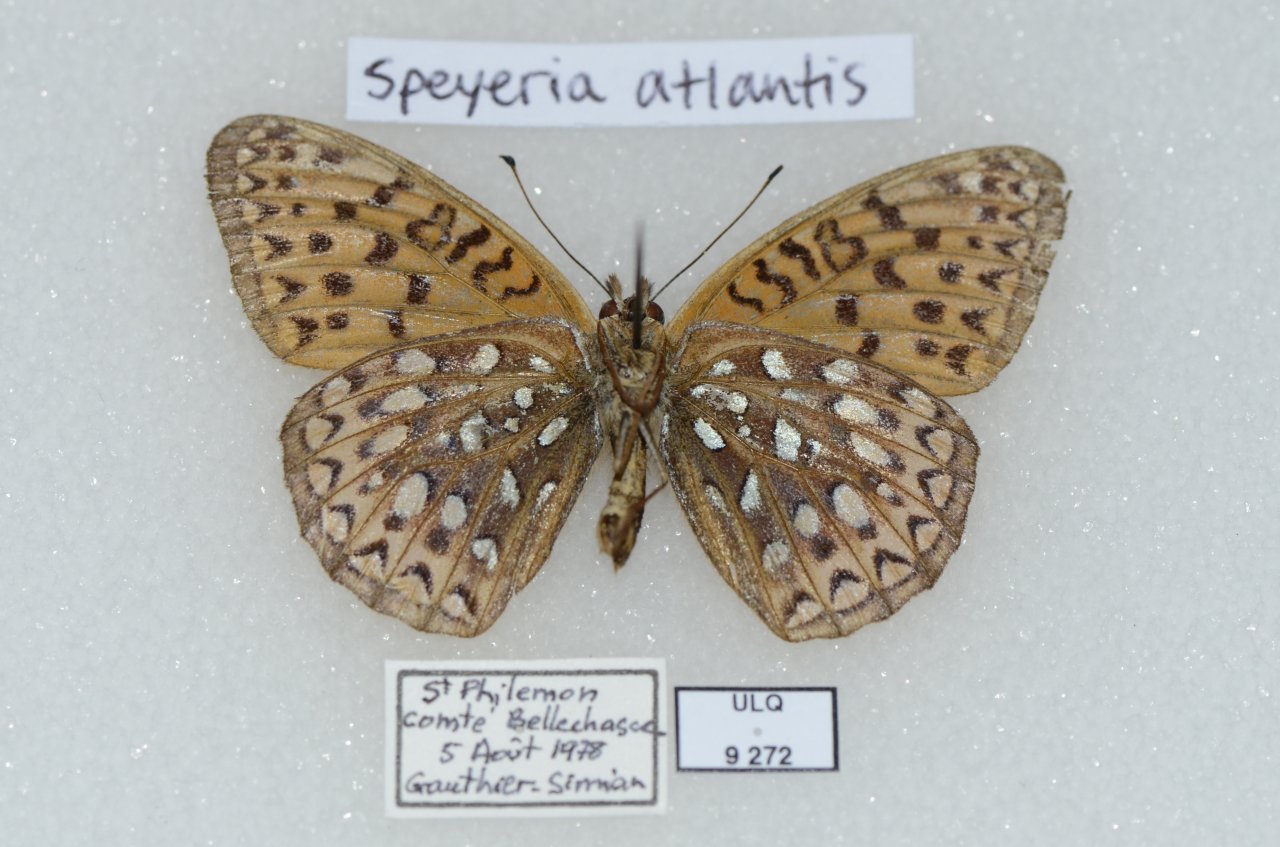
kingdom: Animalia
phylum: Arthropoda
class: Insecta
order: Lepidoptera
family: Nymphalidae
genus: Speyeria
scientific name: Speyeria atlantis
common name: Atlantis Fritillary
